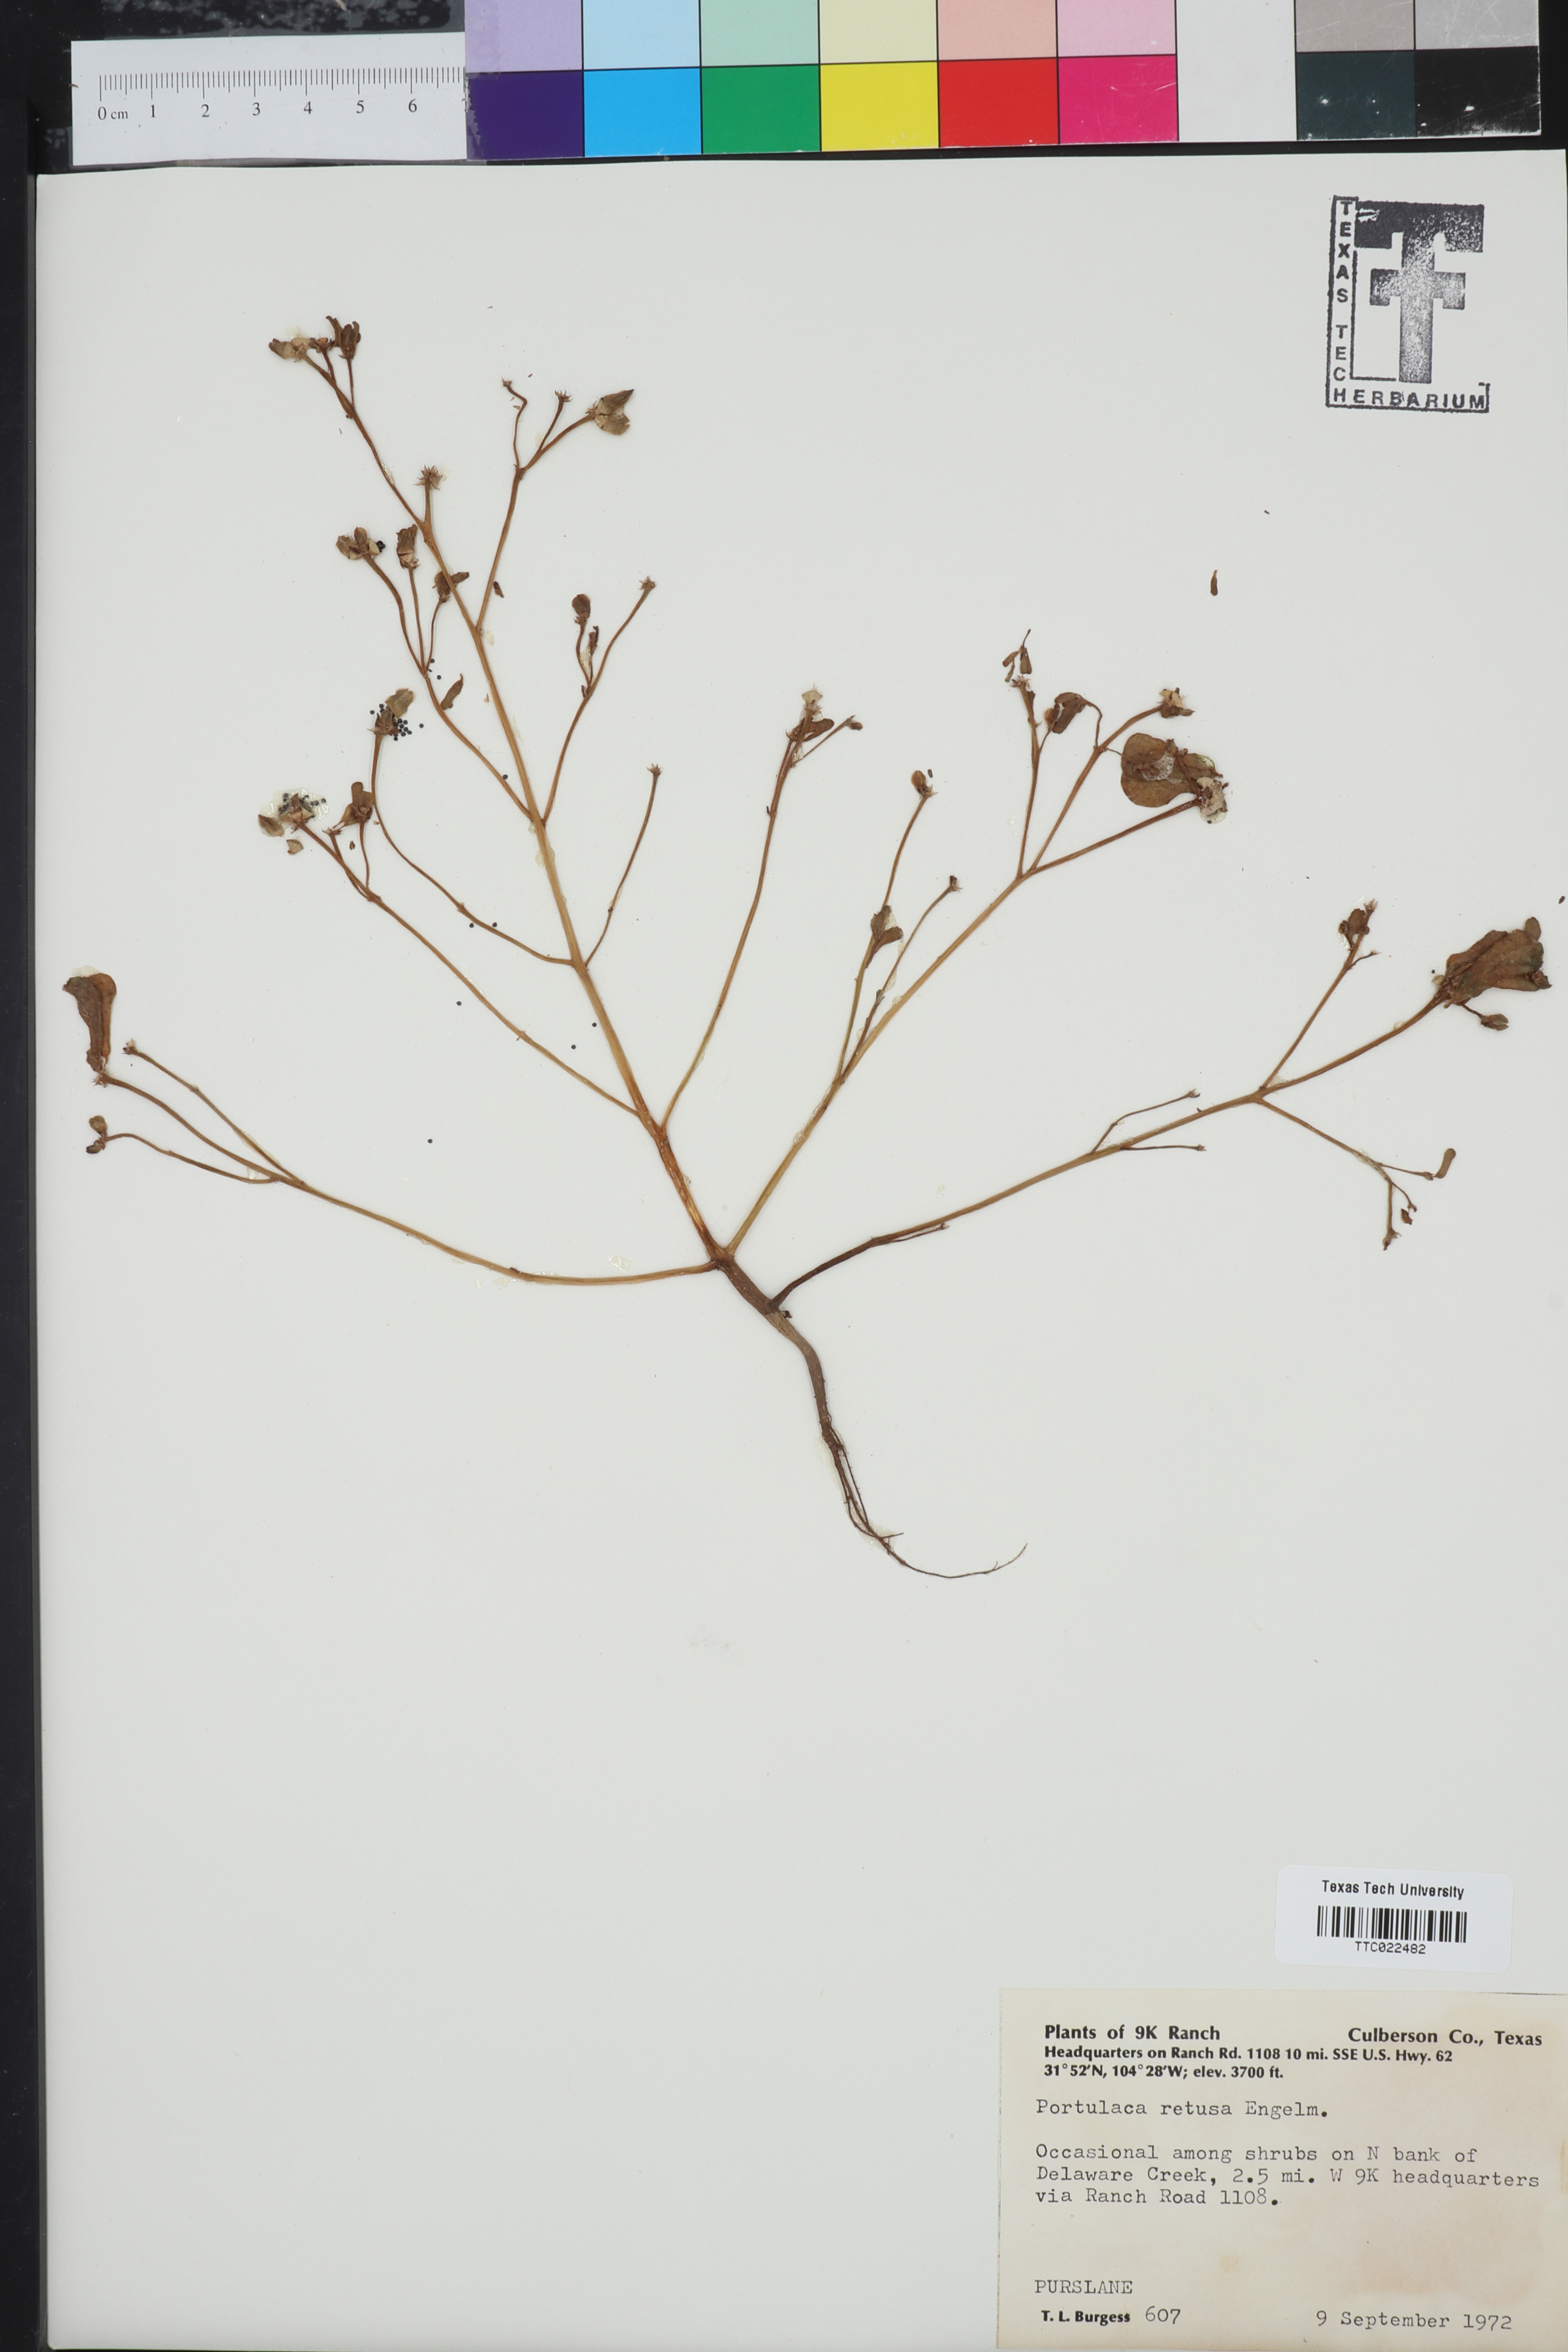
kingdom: Plantae
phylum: Tracheophyta
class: Magnoliopsida
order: Caryophyllales
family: Portulacaceae
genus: Portulaca
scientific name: Portulaca oleracea
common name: Common purslane
